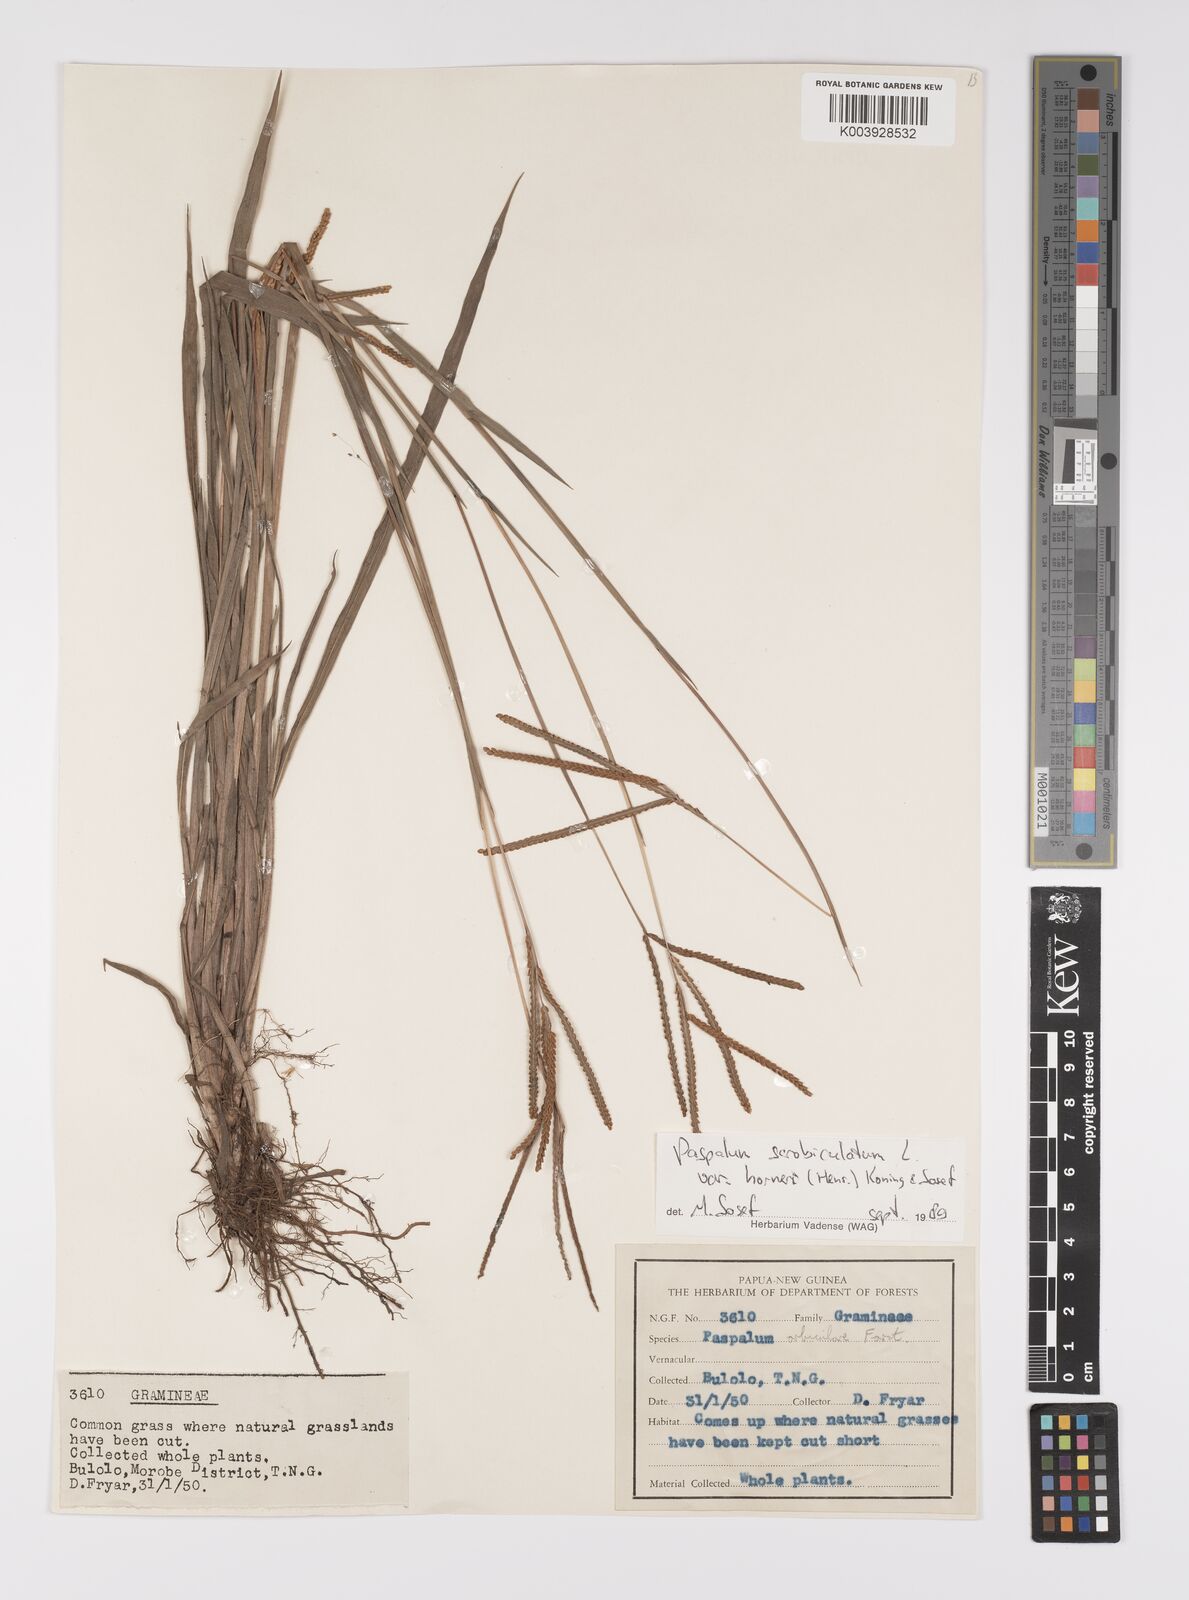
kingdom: Plantae
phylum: Tracheophyta
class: Liliopsida
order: Poales
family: Poaceae
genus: Paspalum
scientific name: Paspalum scrobiculatum
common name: Kodo millet
